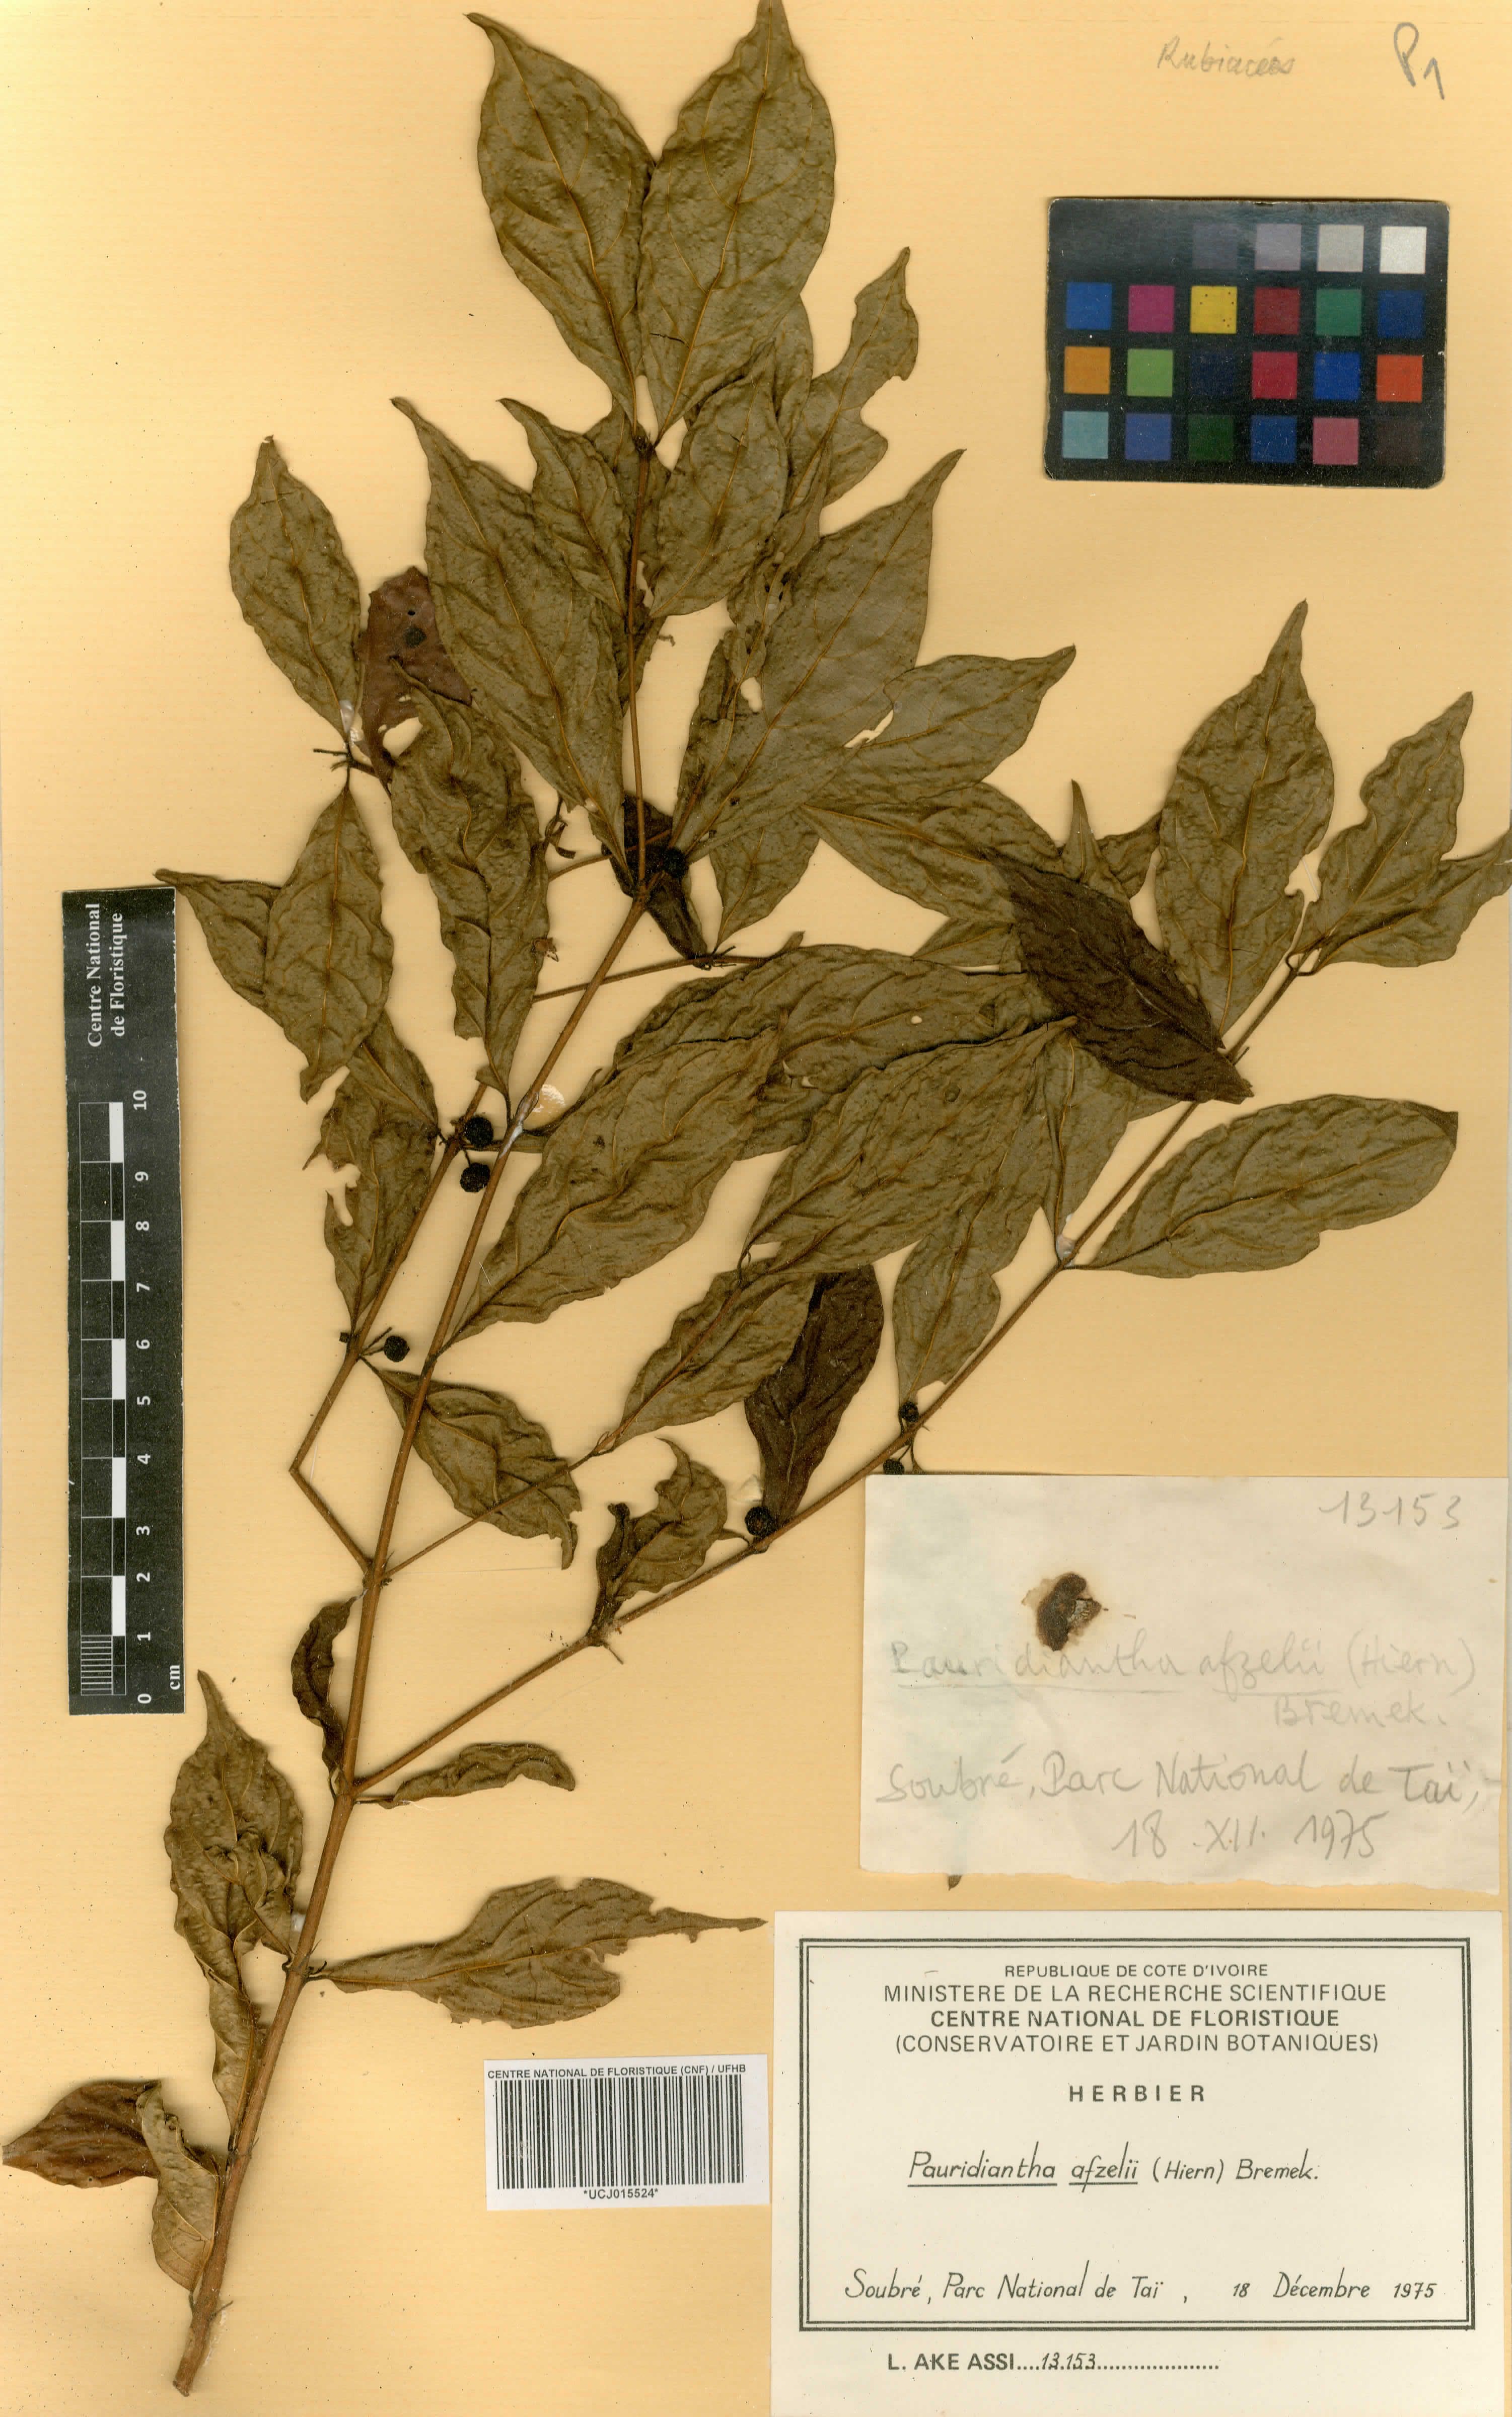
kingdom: Plantae
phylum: Tracheophyta
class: Magnoliopsida
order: Gentianales
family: Rubiaceae
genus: Pauridiantha
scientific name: Pauridiantha afzelii
